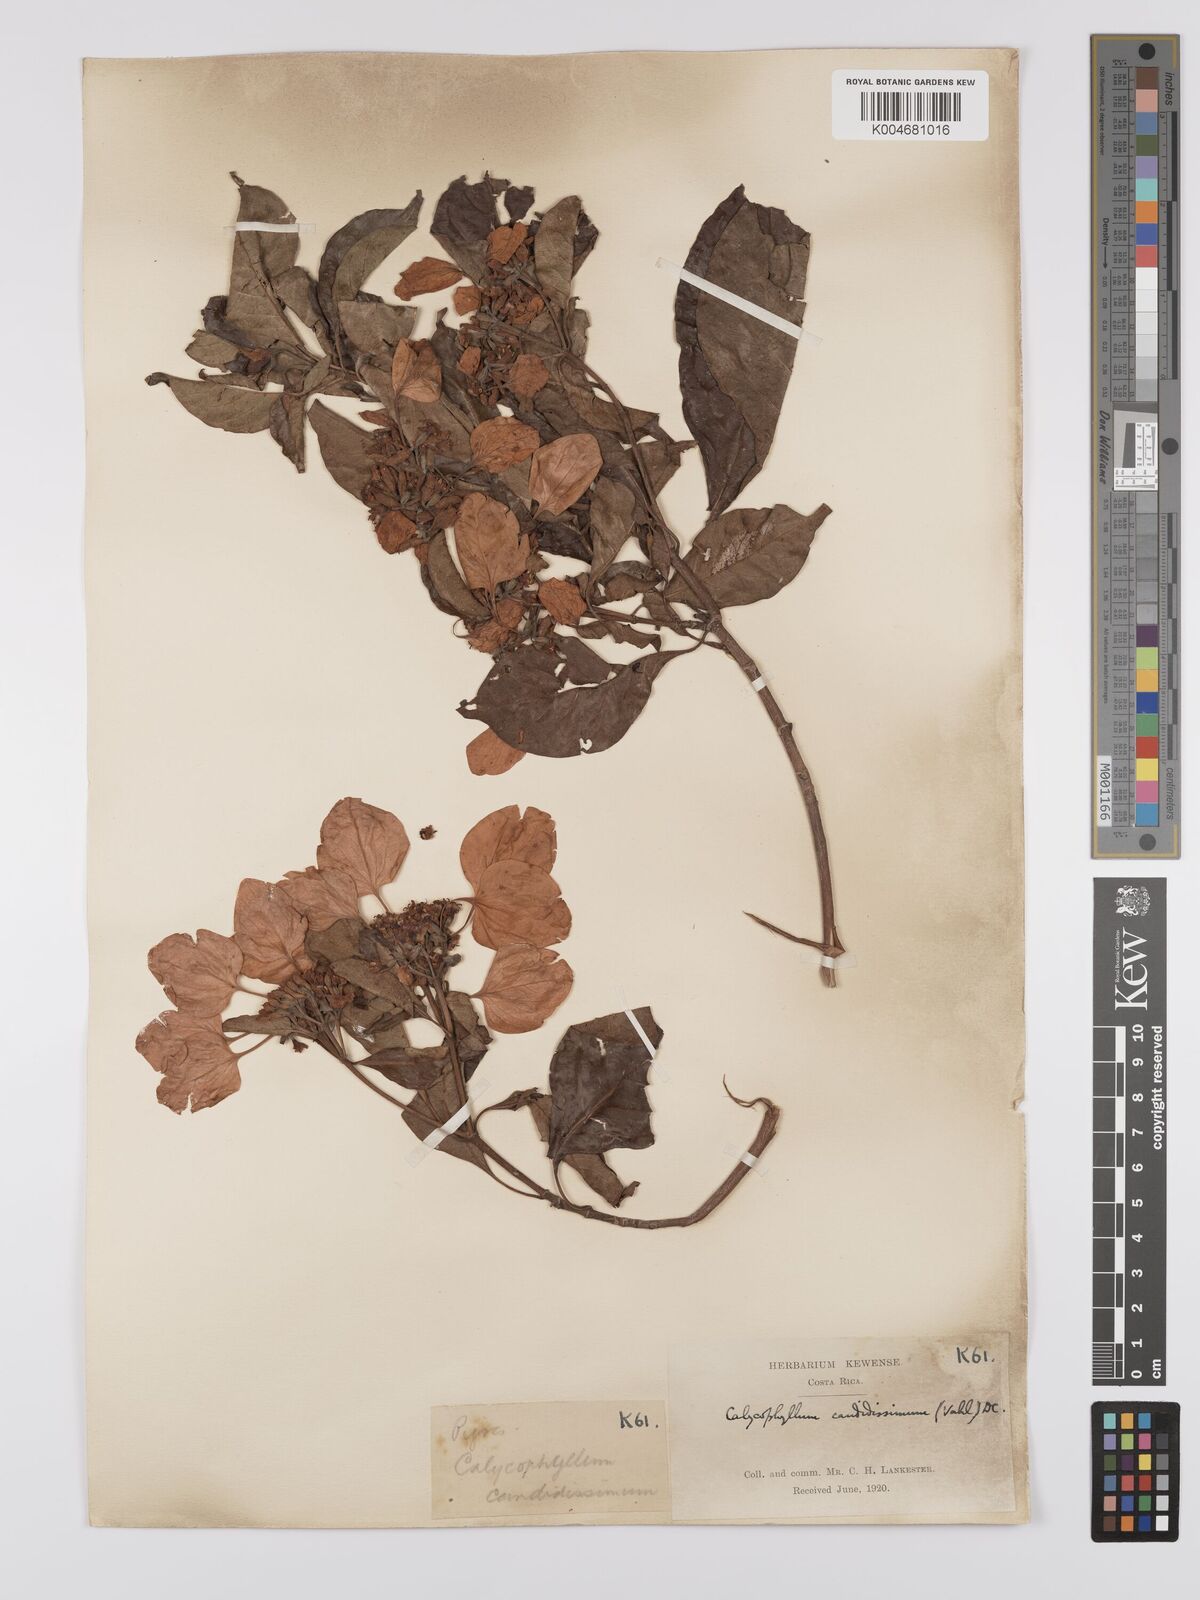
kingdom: Plantae
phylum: Tracheophyta
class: Magnoliopsida
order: Gentianales
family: Rubiaceae
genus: Calycophyllum
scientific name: Calycophyllum candidissimum
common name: Dagame
